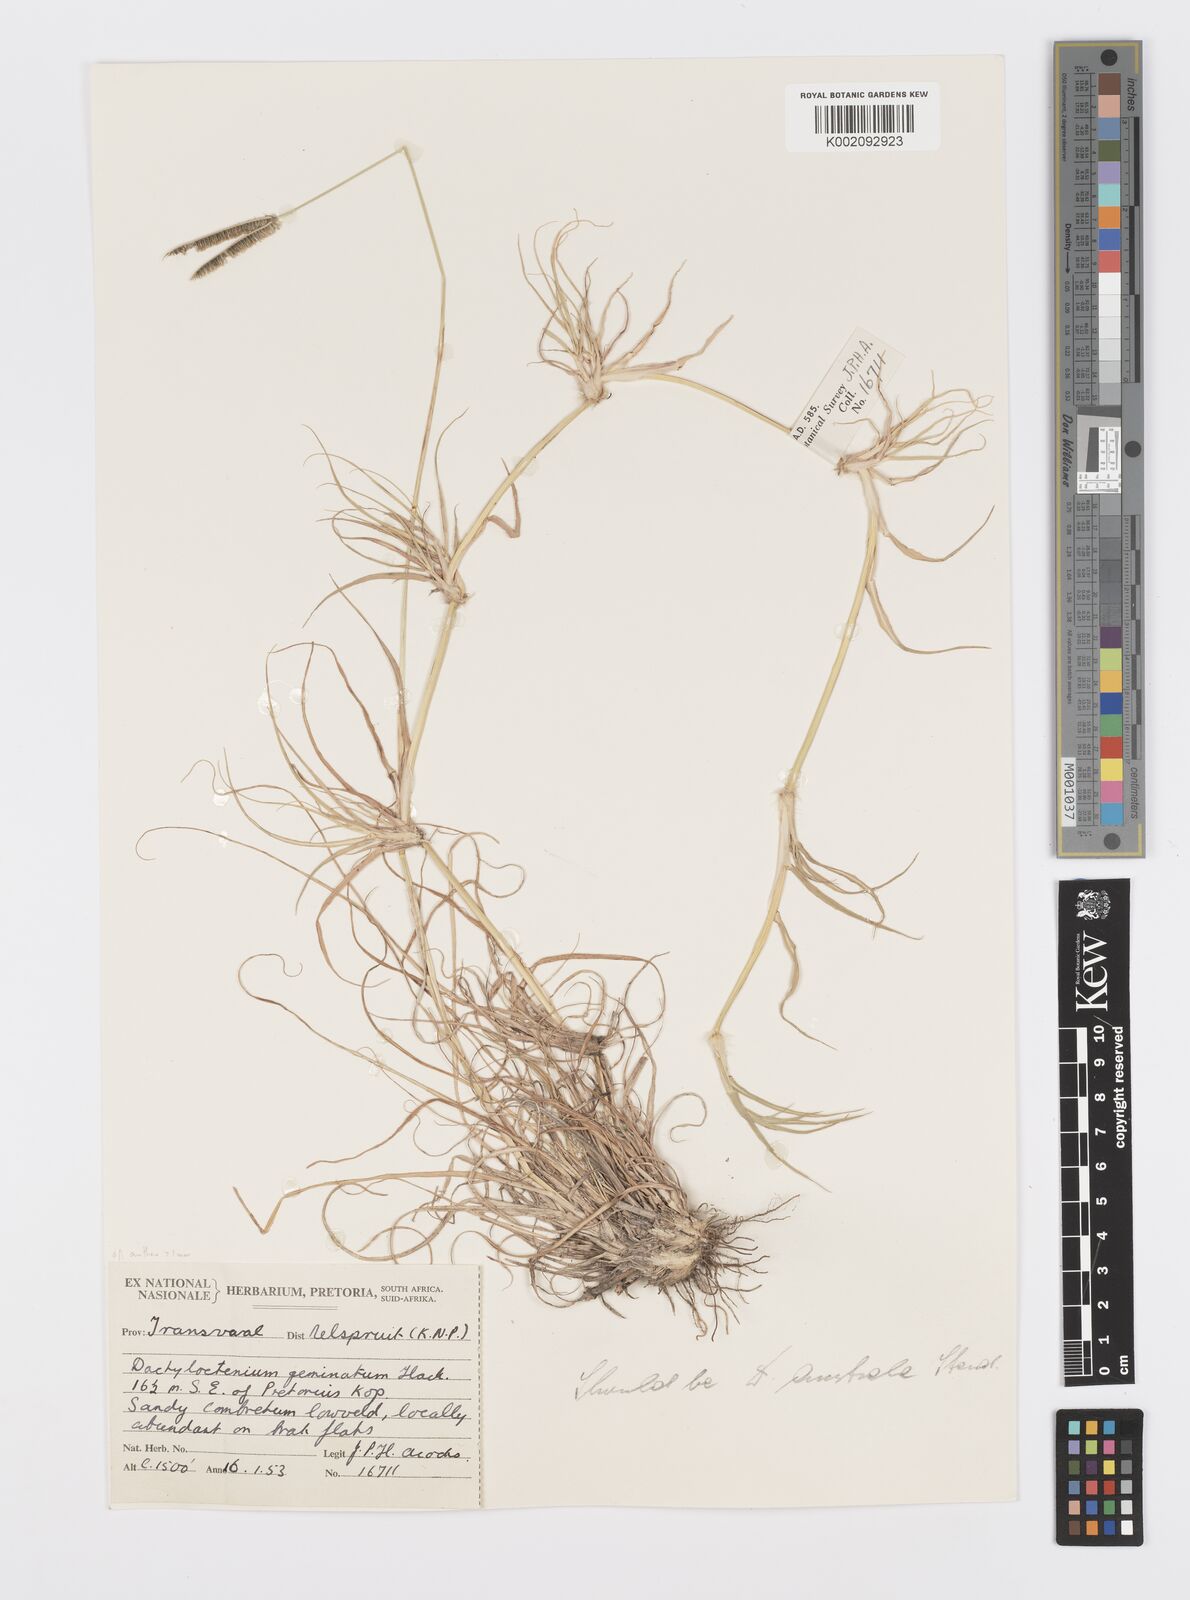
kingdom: Plantae
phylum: Tracheophyta
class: Liliopsida
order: Poales
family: Poaceae
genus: Dactyloctenium
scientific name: Dactyloctenium geminatum
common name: Crowsfoot grass
